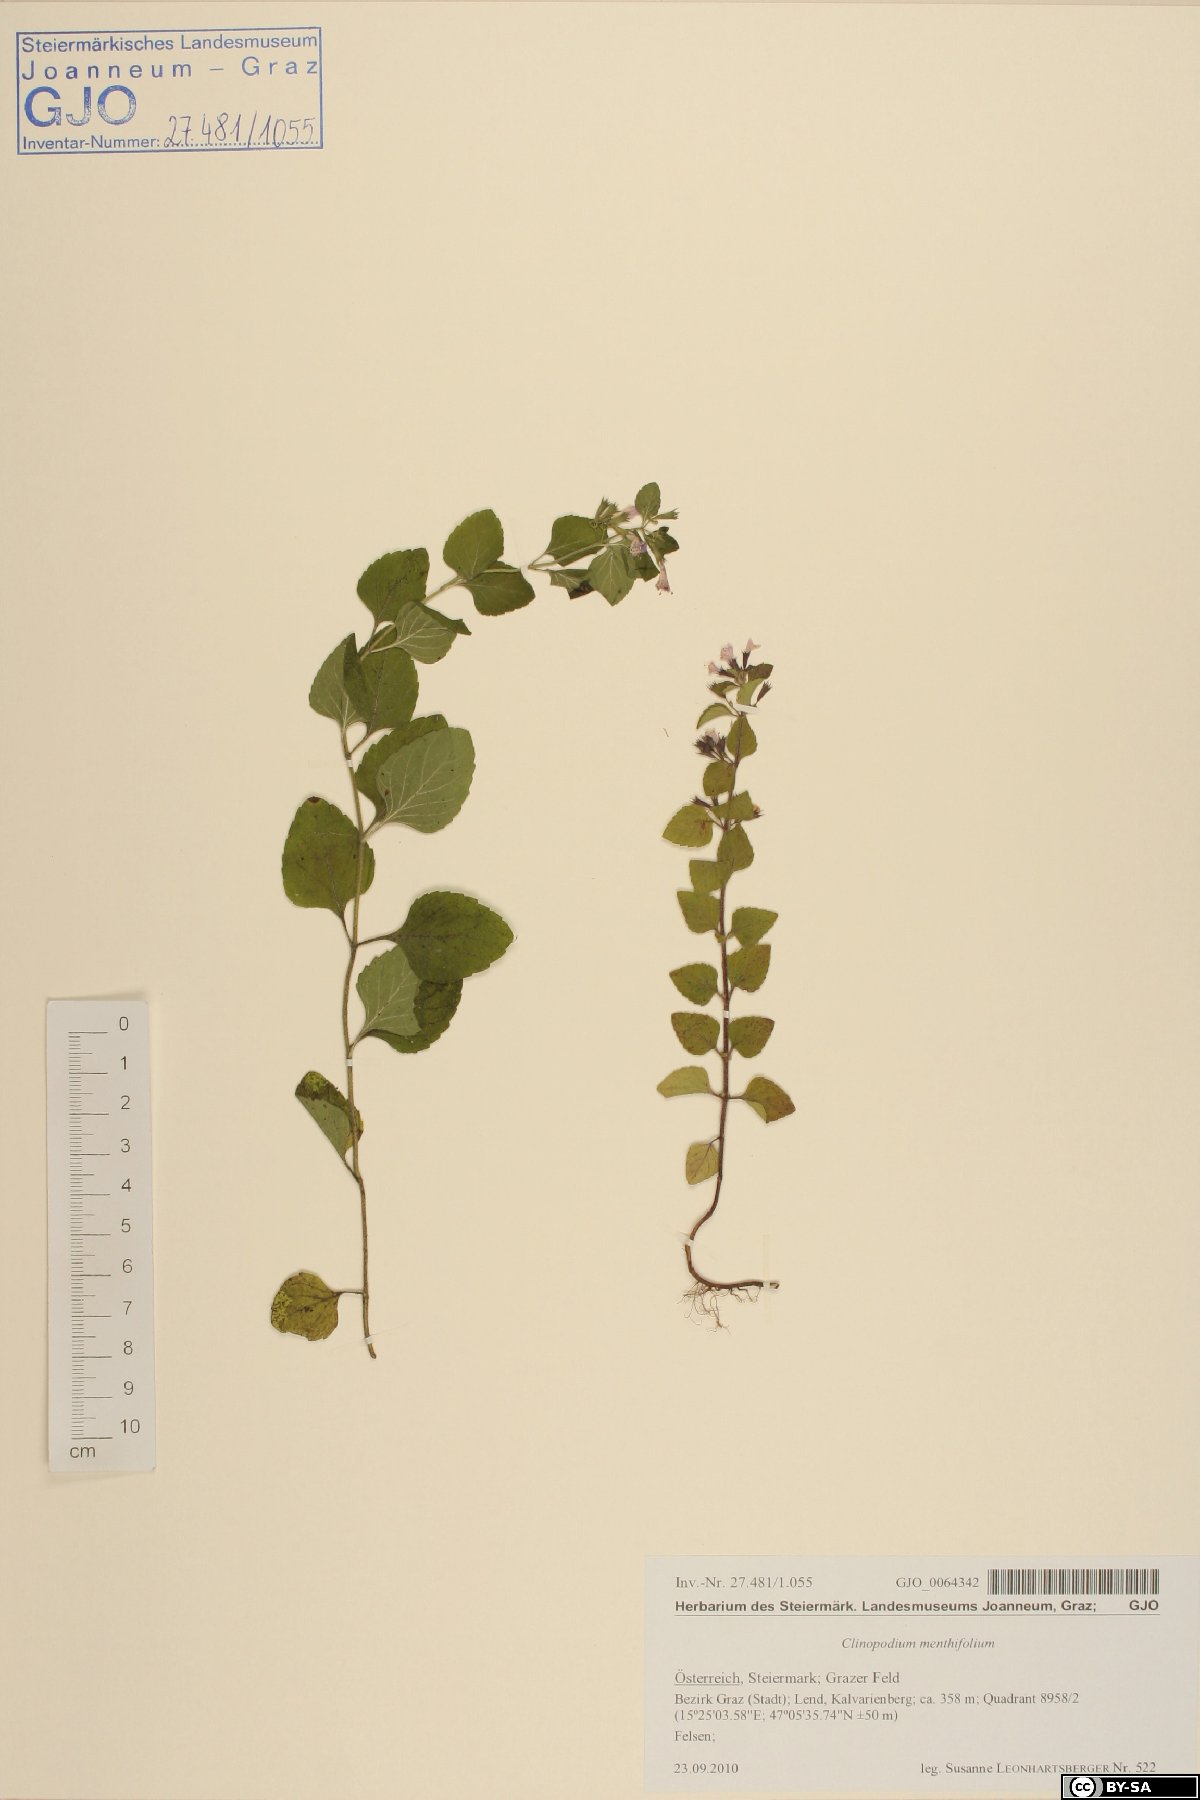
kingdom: Plantae
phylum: Tracheophyta
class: Magnoliopsida
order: Lamiales
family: Lamiaceae
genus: Clinopodium
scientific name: Clinopodium menthifolium
